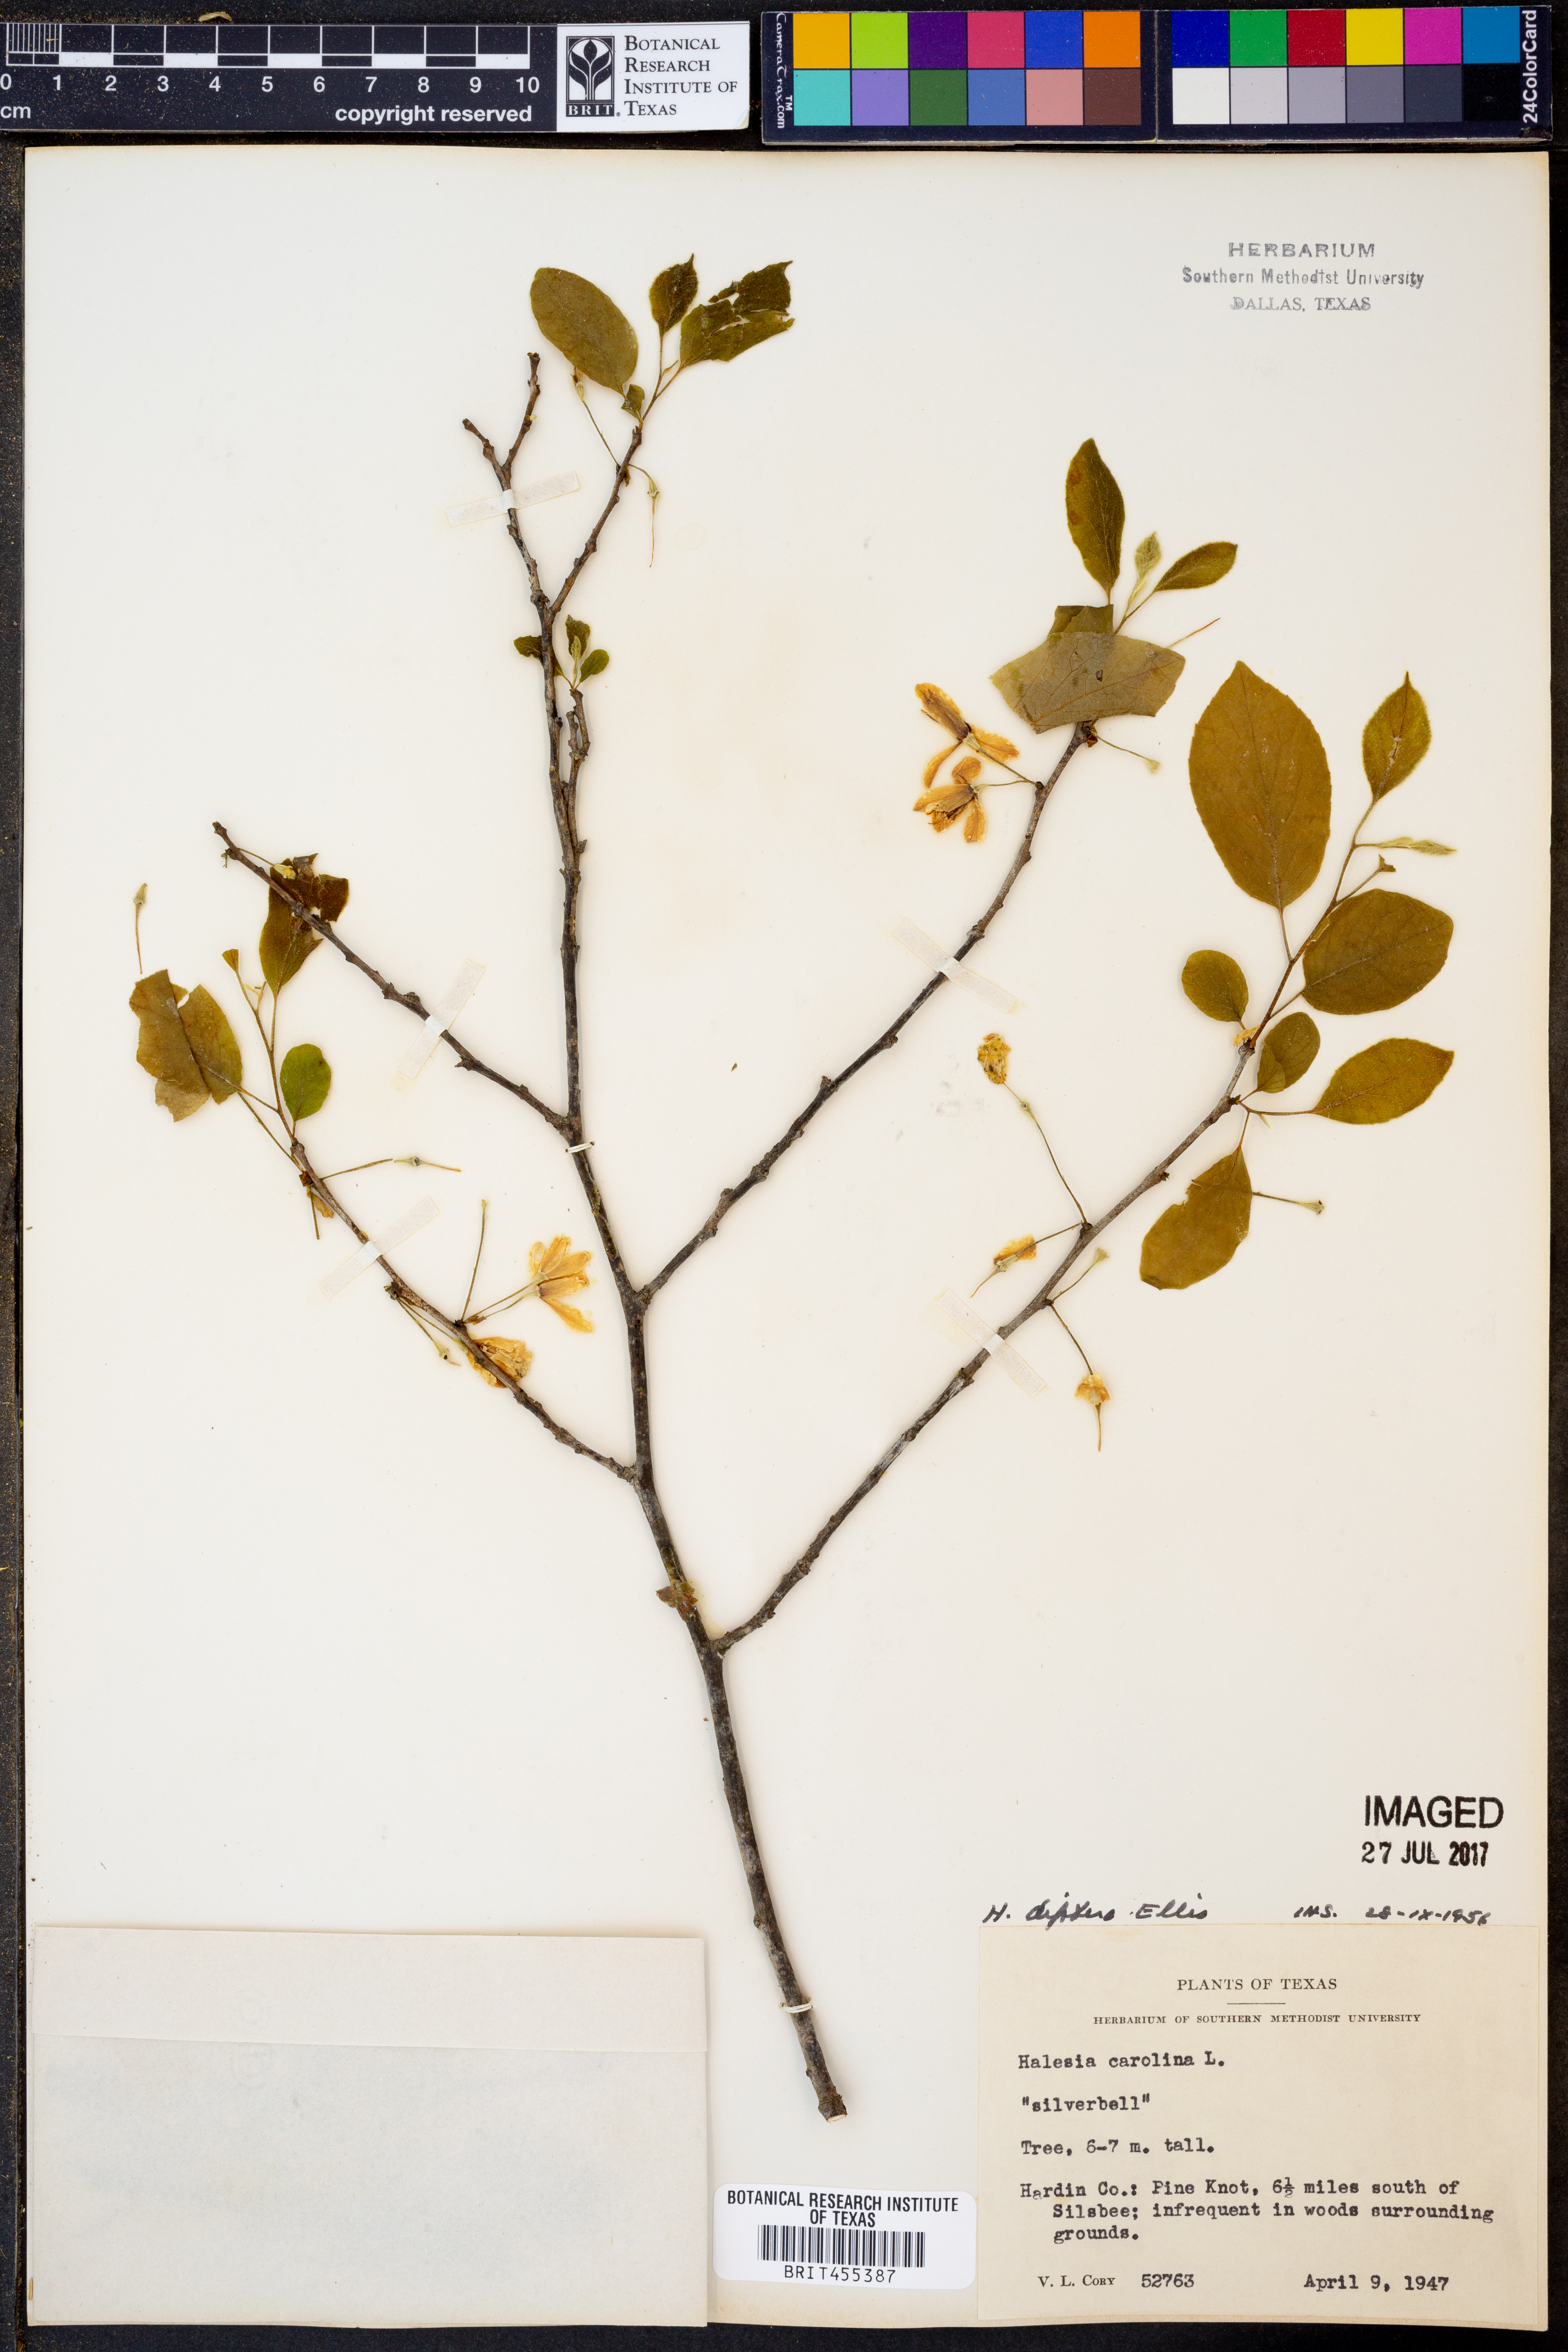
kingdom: Plantae
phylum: Tracheophyta
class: Magnoliopsida
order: Ericales
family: Styracaceae
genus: Halesia
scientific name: Halesia diptera
